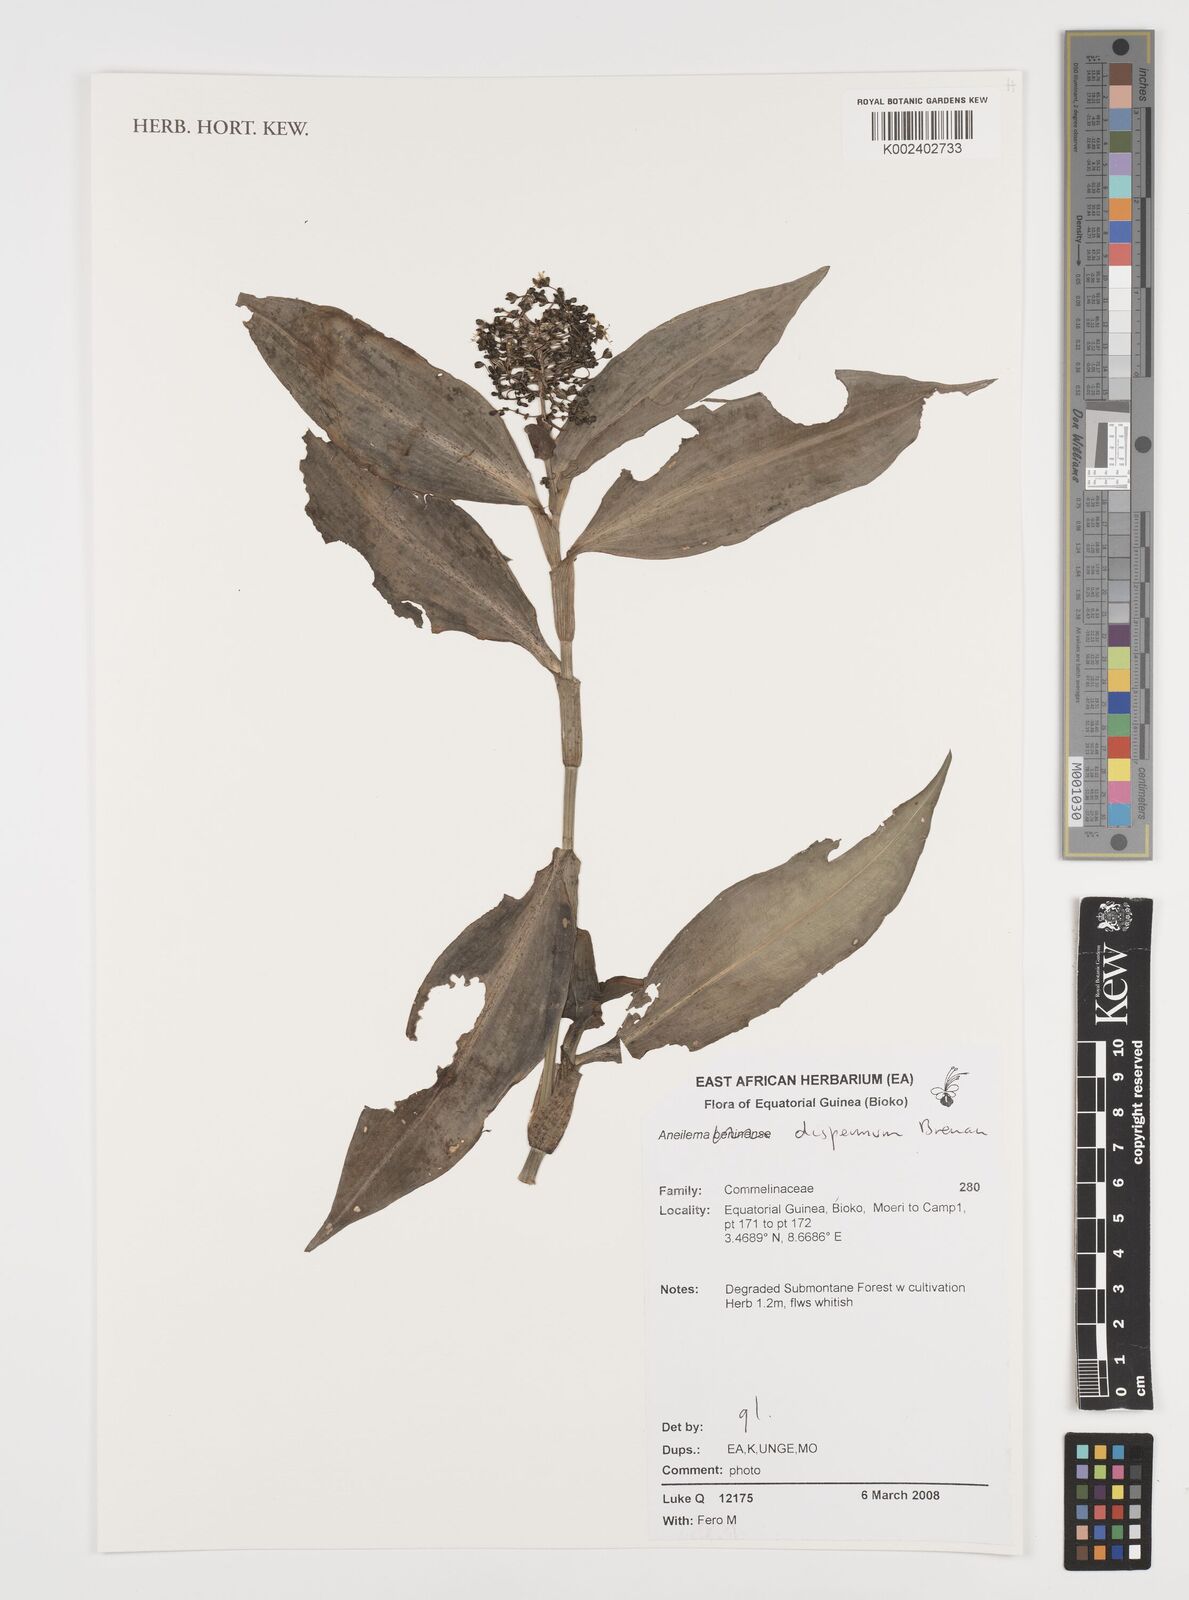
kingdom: Plantae
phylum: Tracheophyta
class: Liliopsida
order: Commelinales
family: Commelinaceae
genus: Aneilema
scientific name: Aneilema dispermum
